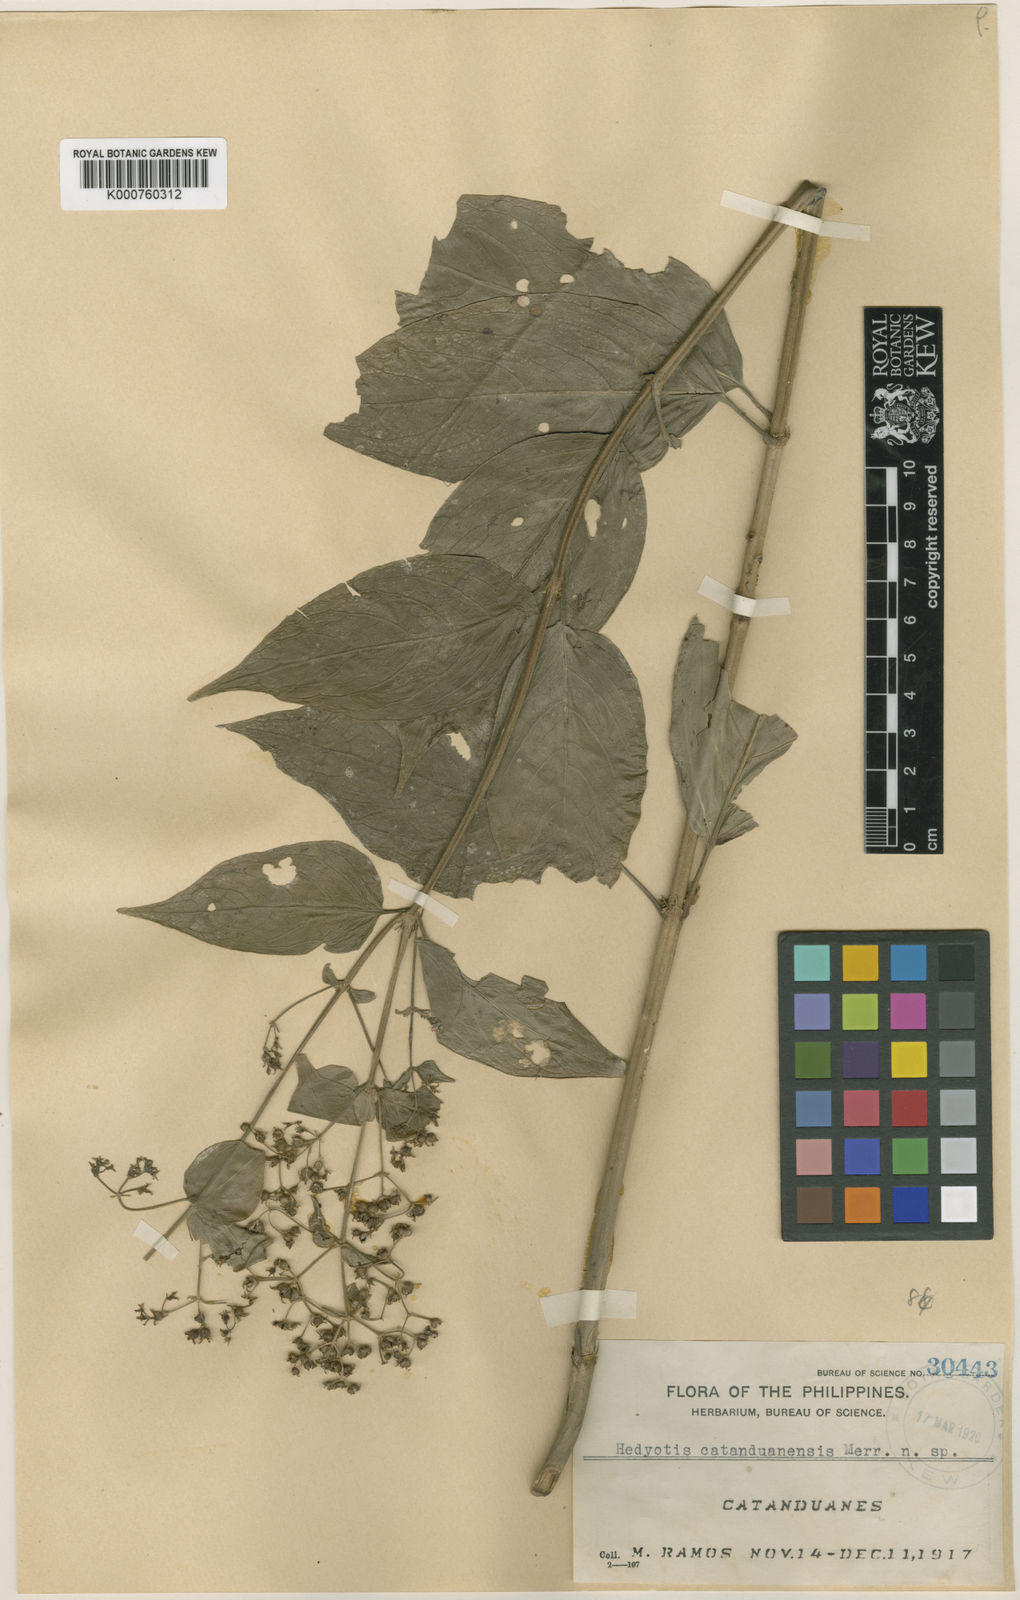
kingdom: Plantae
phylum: Tracheophyta
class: Magnoliopsida
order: Gentianales
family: Rubiaceae
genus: Hedyotis
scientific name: Hedyotis catanduanensis
